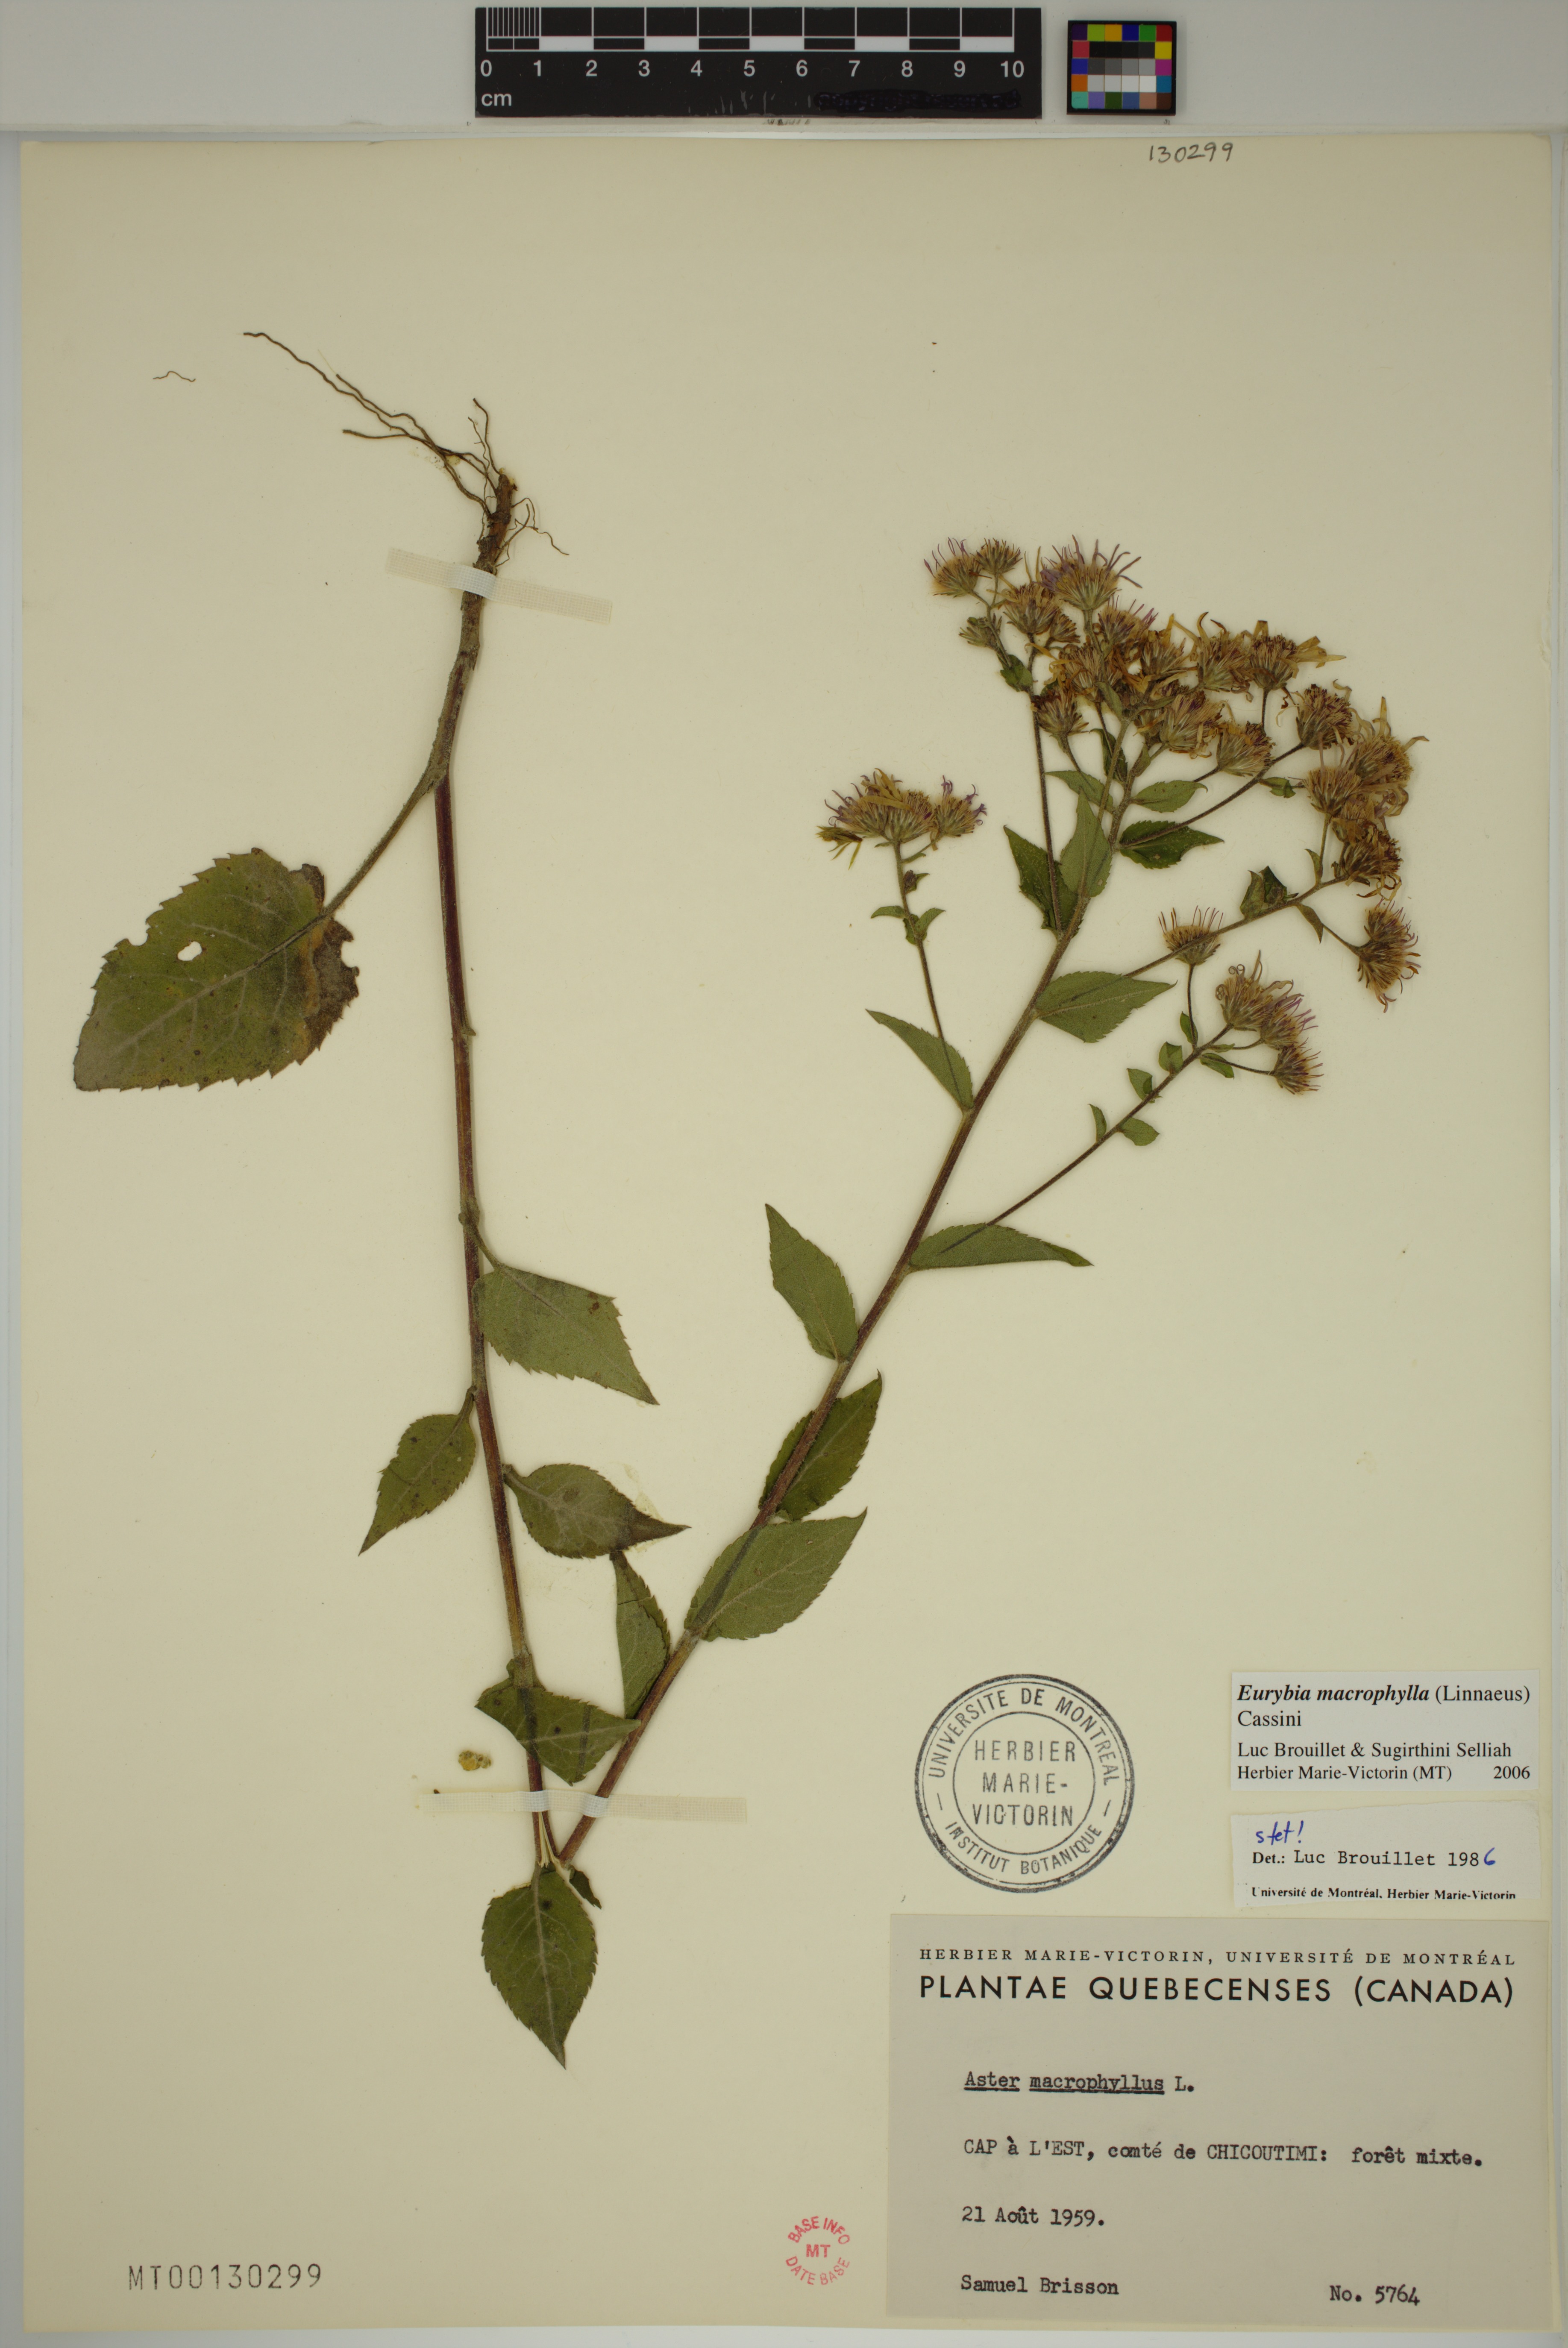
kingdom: Plantae
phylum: Tracheophyta
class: Magnoliopsida
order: Asterales
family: Asteraceae
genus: Eurybia
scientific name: Eurybia macrophylla
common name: Big-leaved aster
